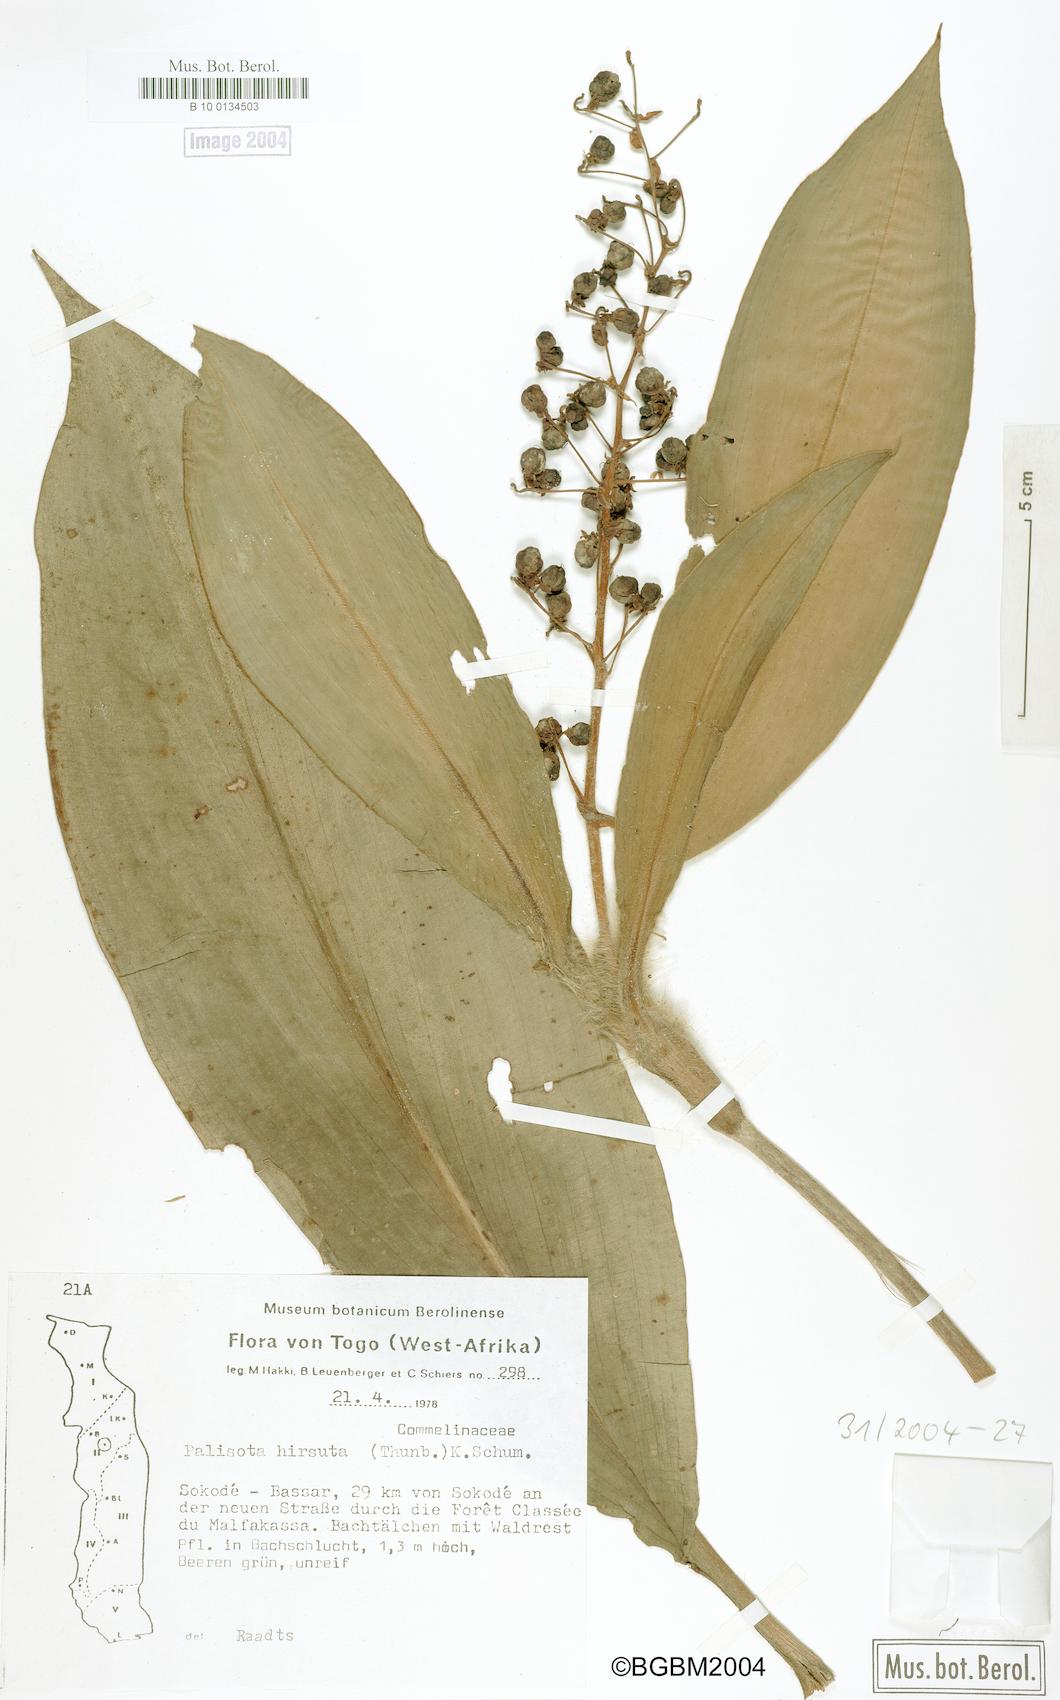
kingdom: Plantae
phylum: Tracheophyta
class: Liliopsida
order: Commelinales
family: Commelinaceae
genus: Palisota
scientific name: Palisota hirsuta
